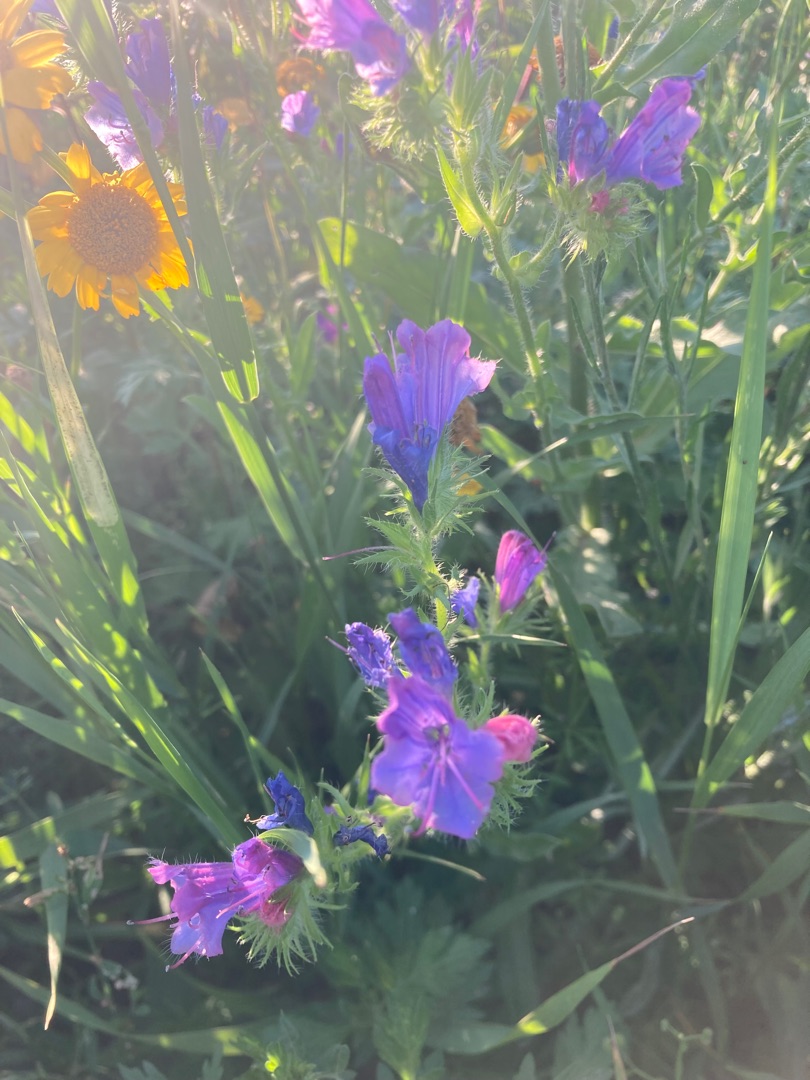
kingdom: Plantae
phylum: Tracheophyta
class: Magnoliopsida
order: Boraginales
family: Boraginaceae
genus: Echium
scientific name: Echium vulgare
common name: Slangehoved
